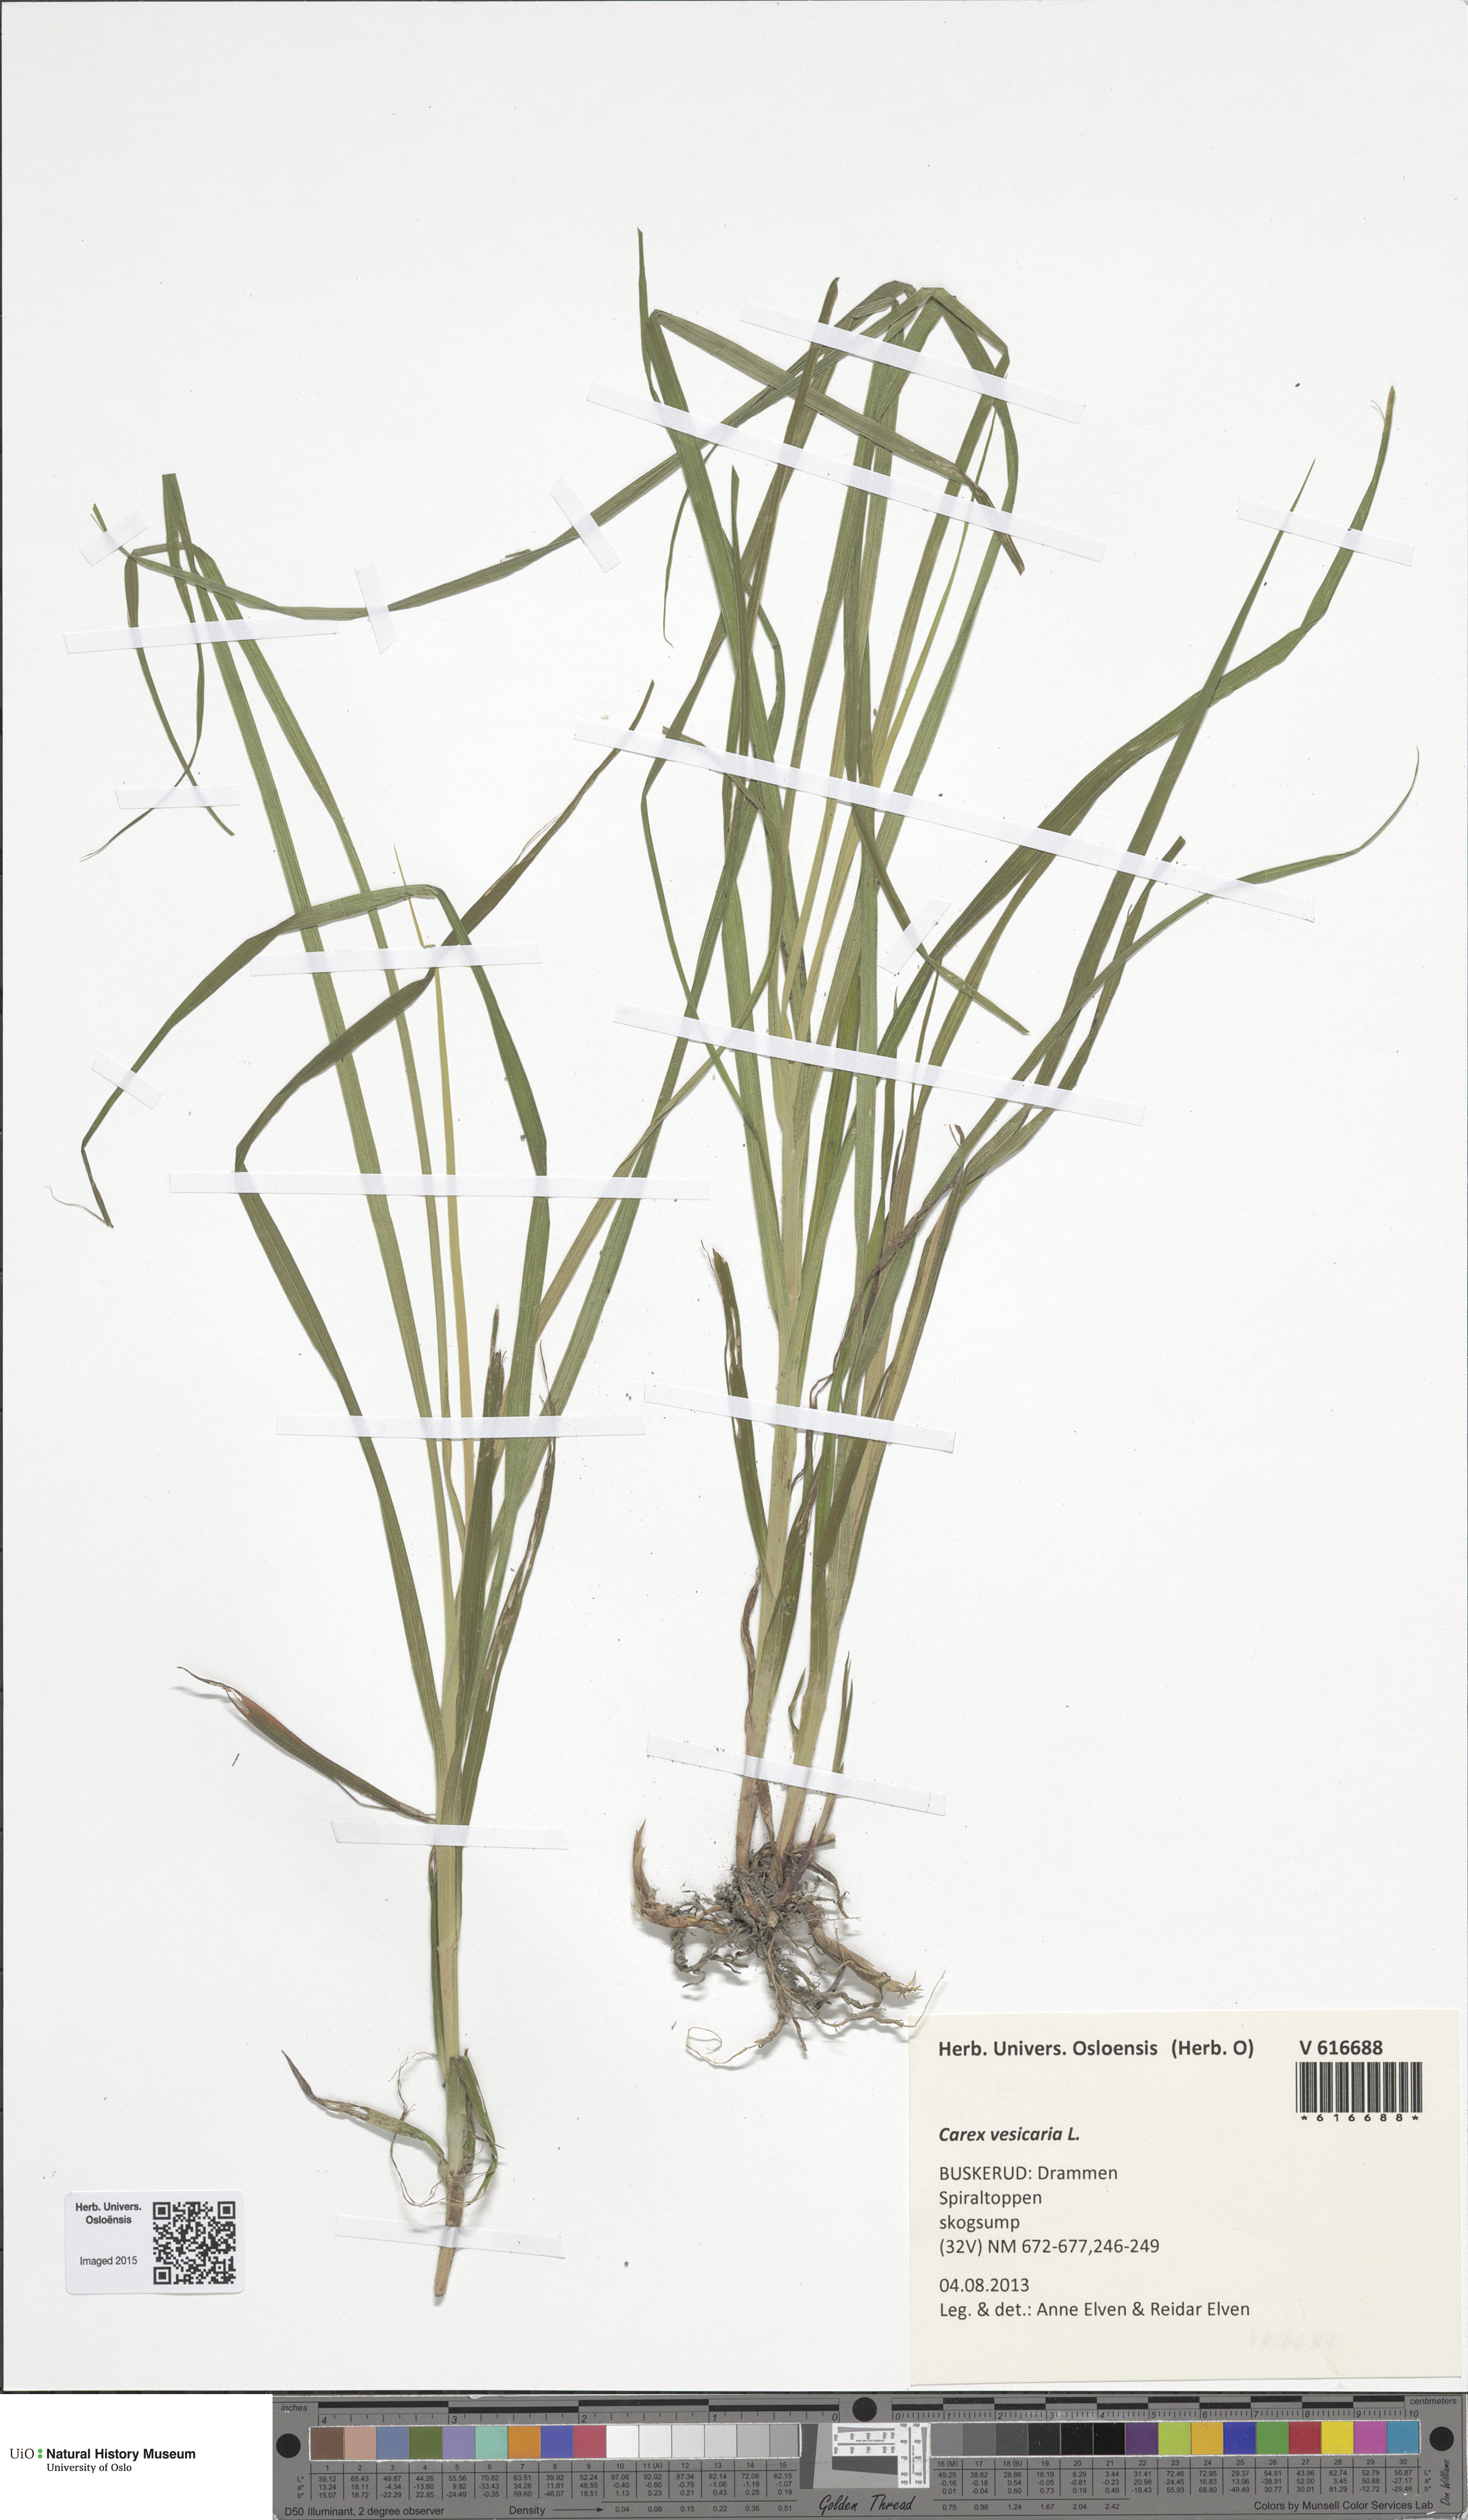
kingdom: Plantae
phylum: Tracheophyta
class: Liliopsida
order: Poales
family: Cyperaceae
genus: Carex
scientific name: Carex vesicaria
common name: Bladder-sedge
